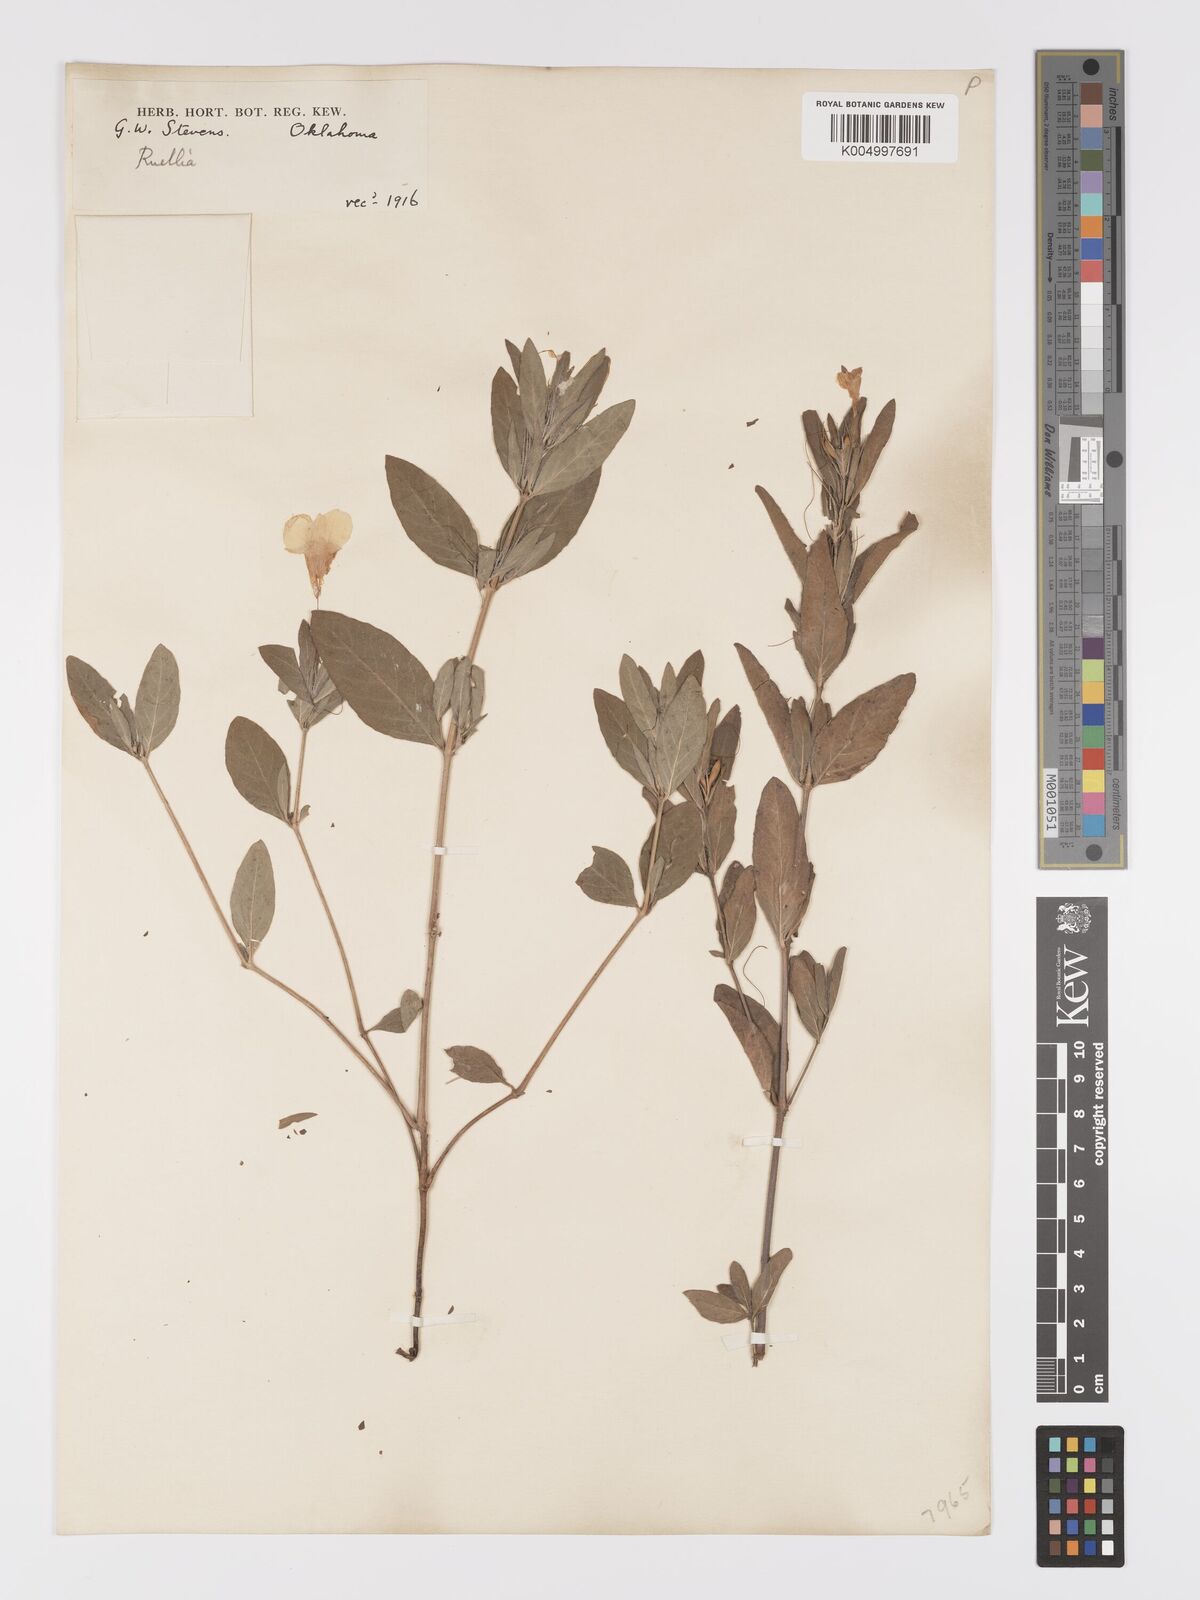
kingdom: Plantae
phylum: Tracheophyta
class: Magnoliopsida
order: Lamiales
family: Acanthaceae
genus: Ruellia
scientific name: Ruellia
